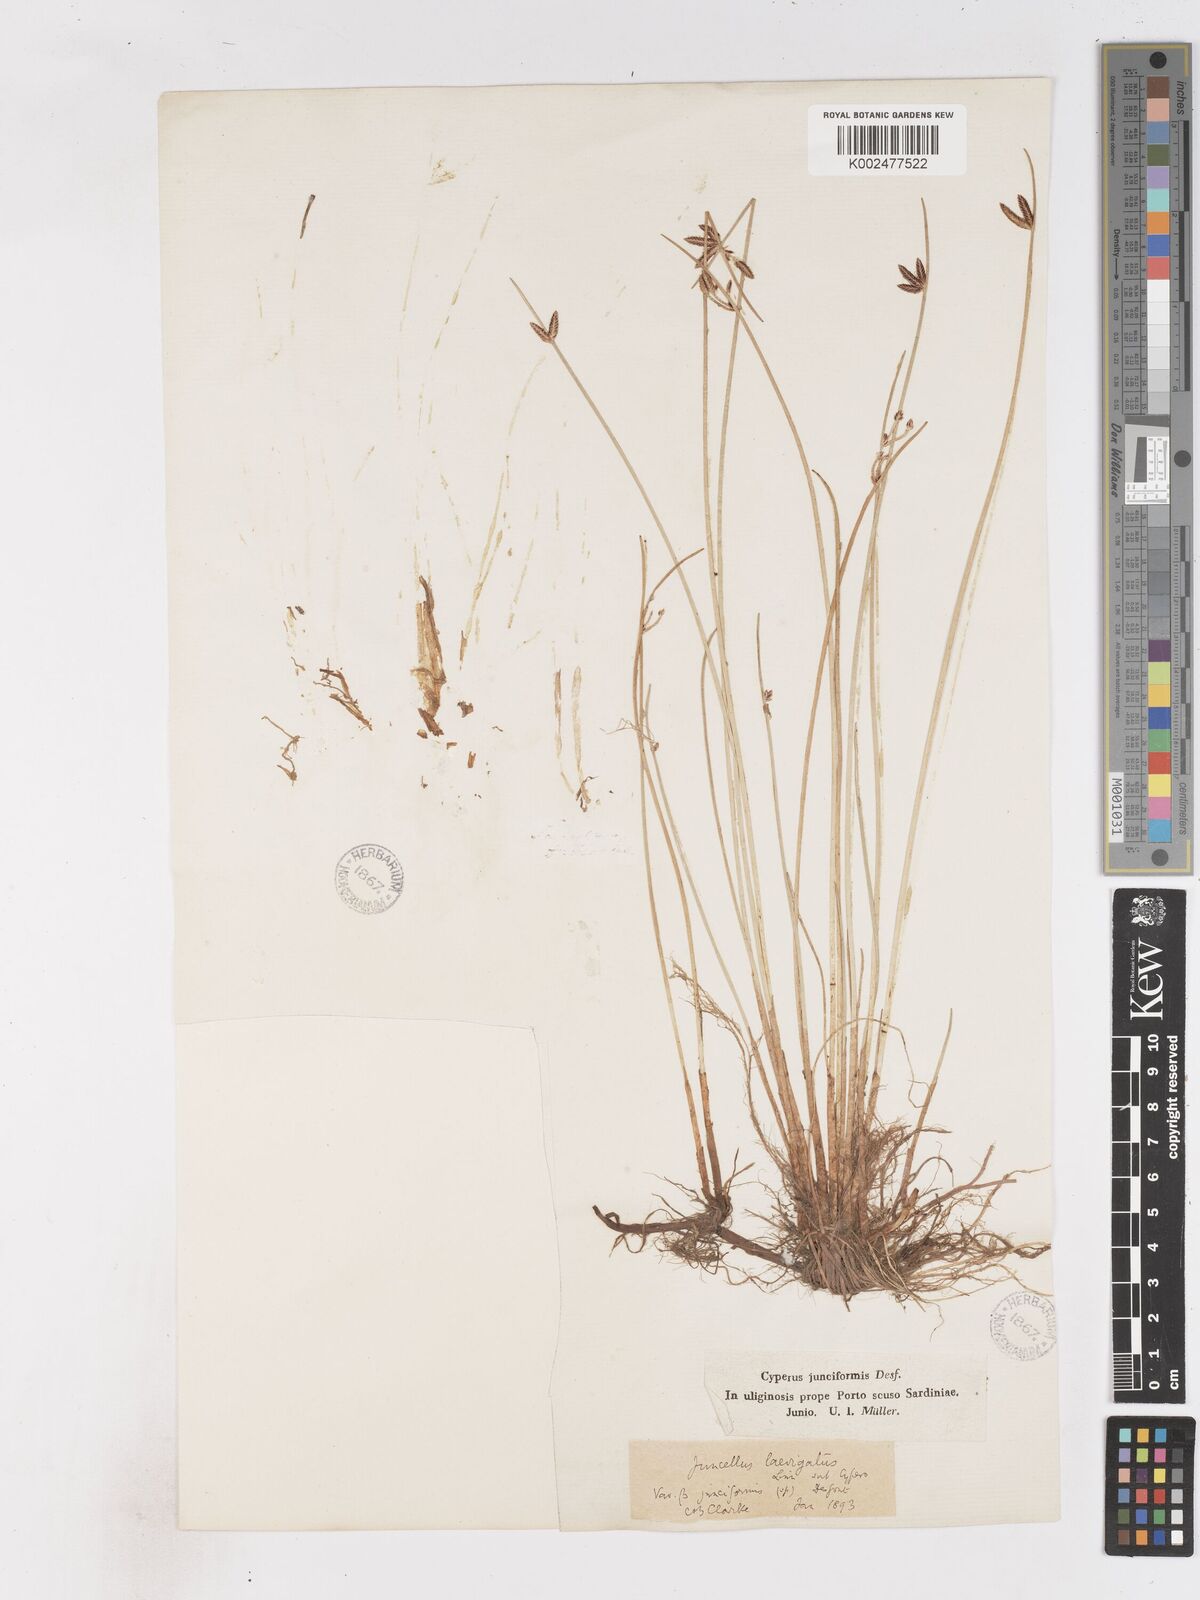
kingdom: Plantae
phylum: Tracheophyta
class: Liliopsida
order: Poales
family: Cyperaceae
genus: Cyperus
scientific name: Cyperus laevigatus
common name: Smooth flat sedge
